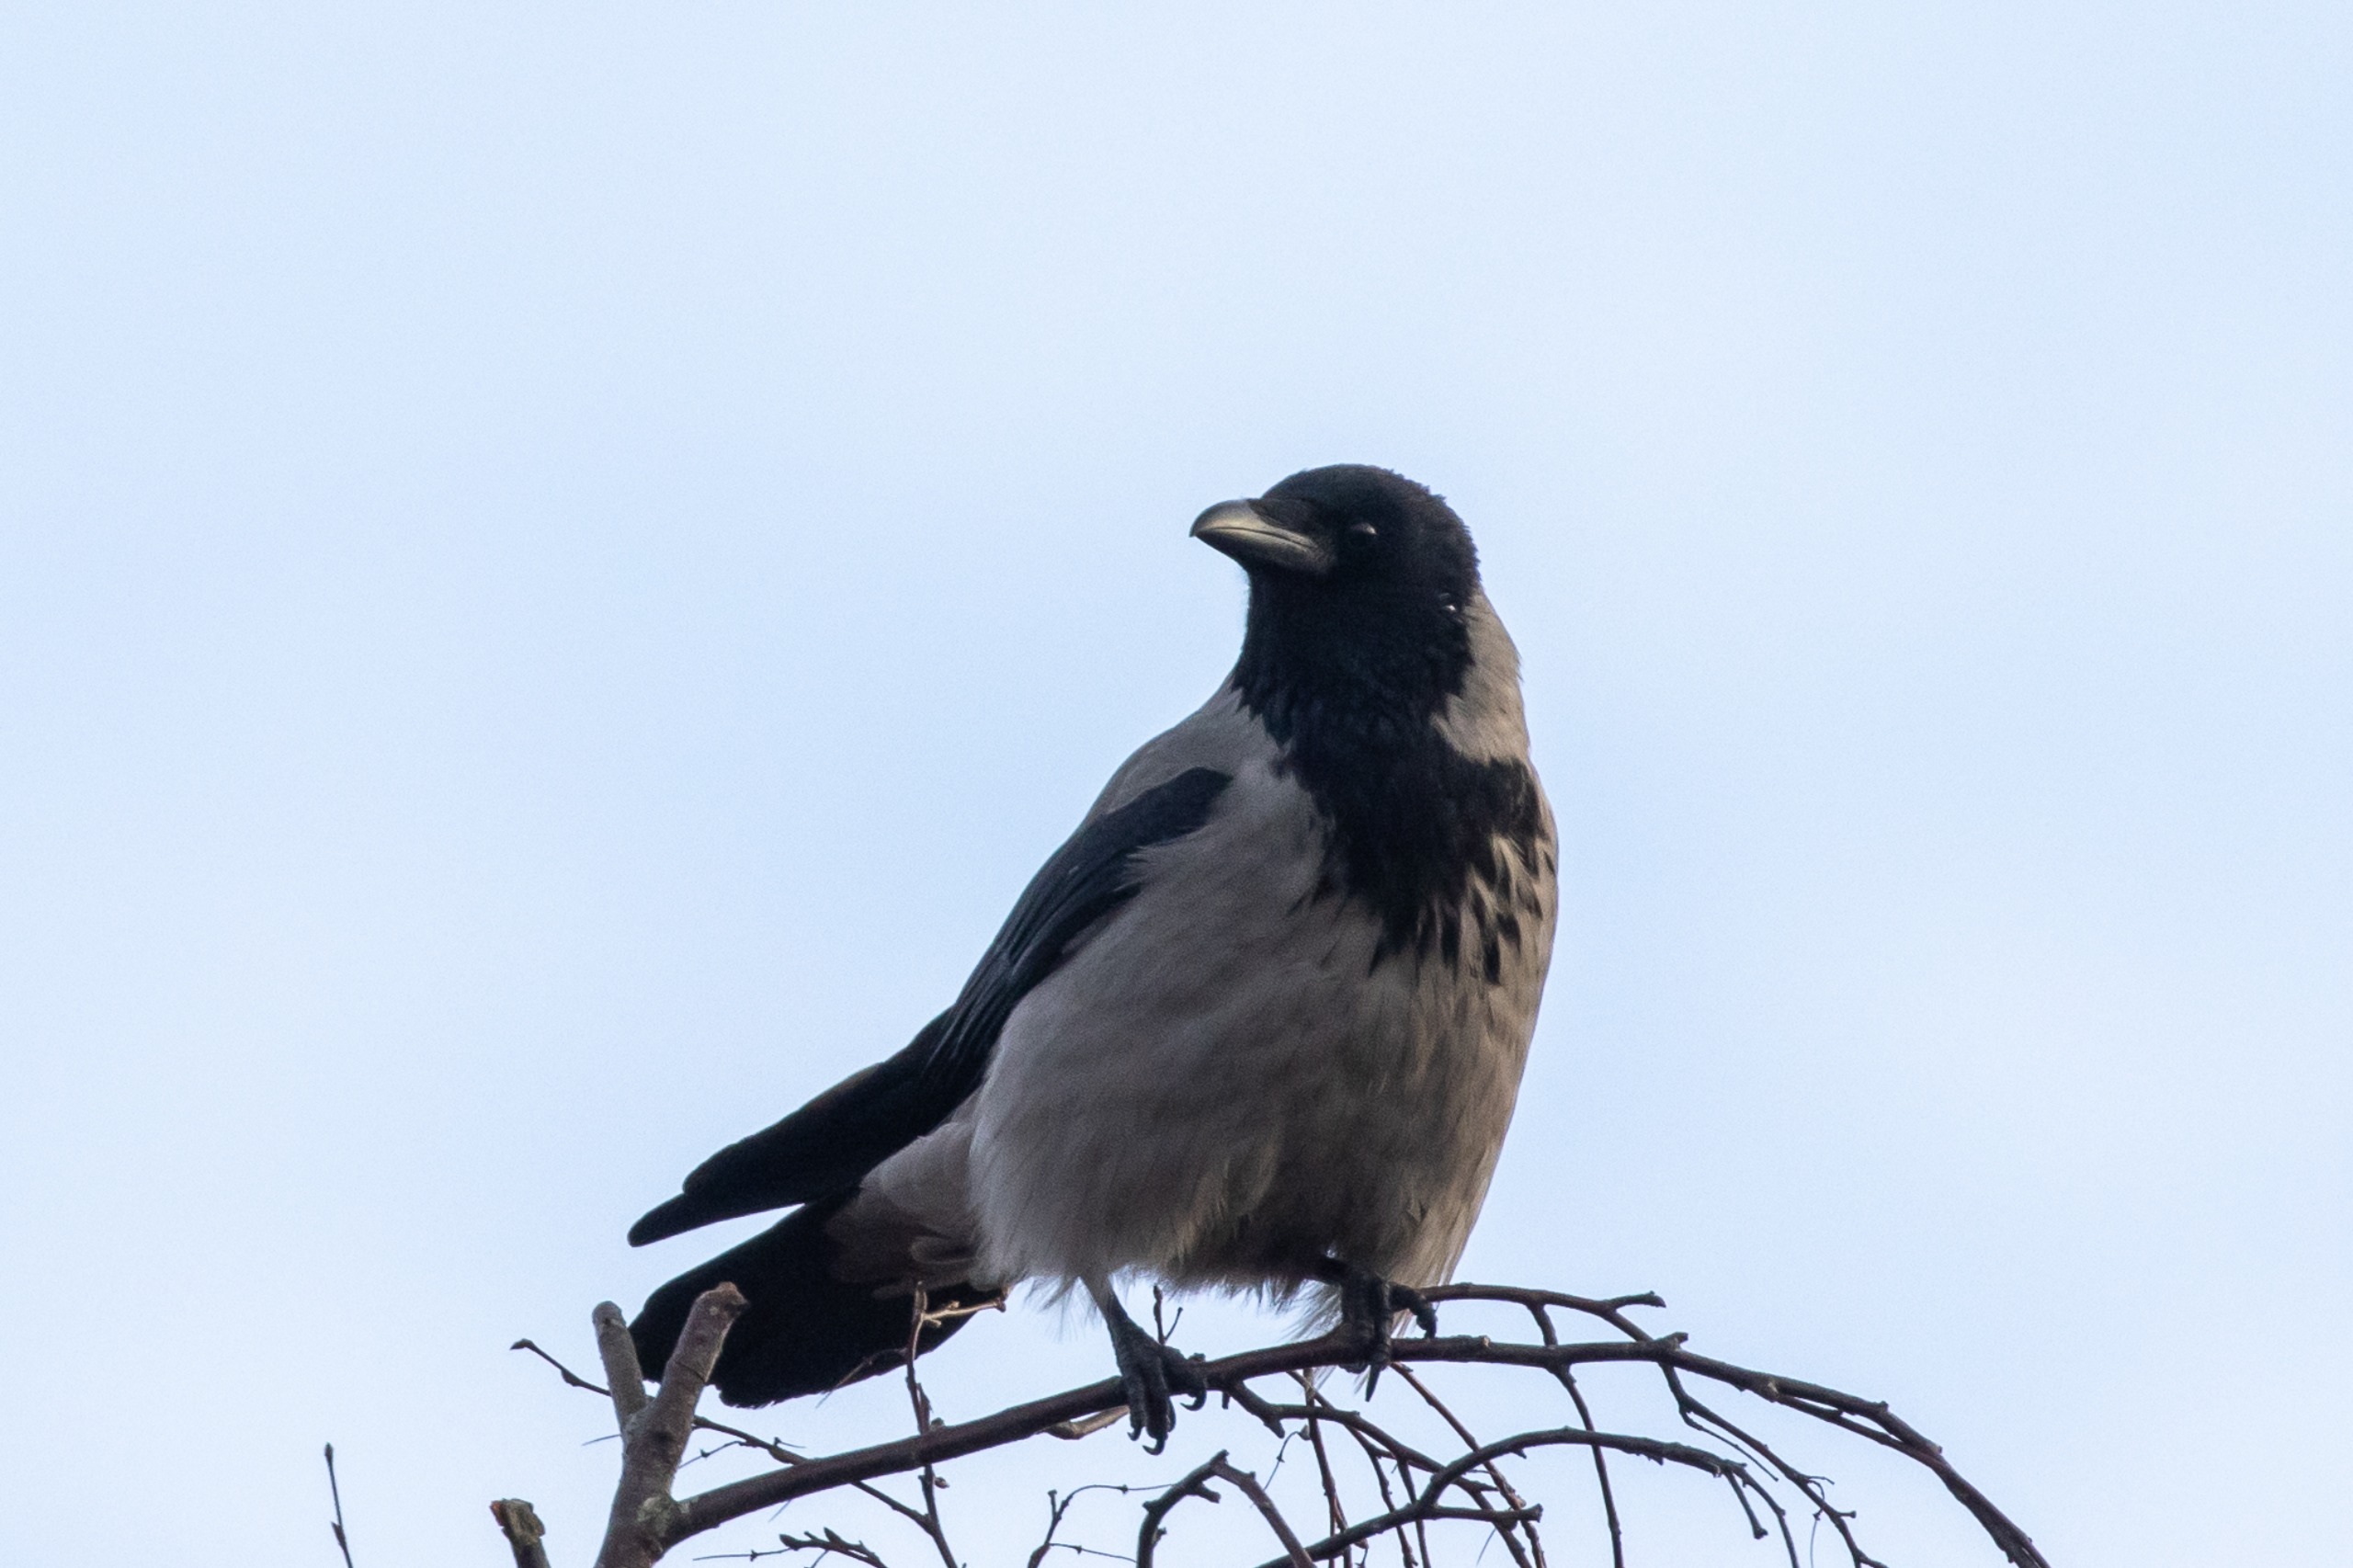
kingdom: Animalia
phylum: Chordata
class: Aves
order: Passeriformes
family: Corvidae
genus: Corvus
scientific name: Corvus cornix
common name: Gråkrage
